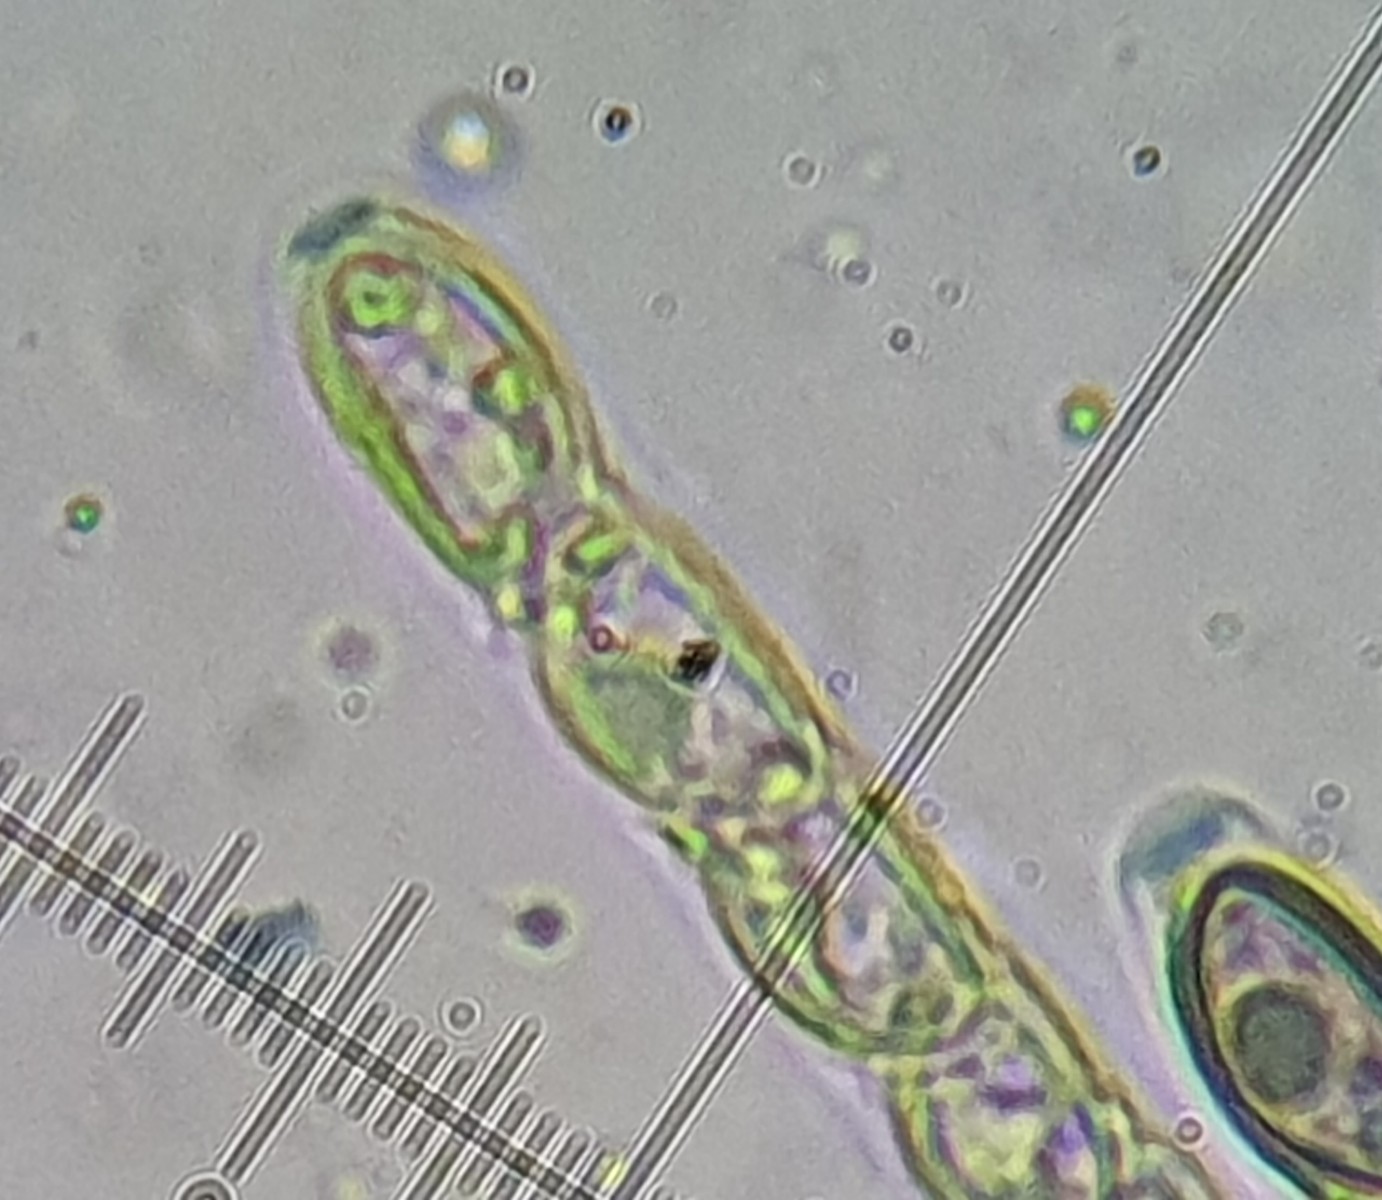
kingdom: Fungi
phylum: Ascomycota
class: Sordariomycetes
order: Xylariales
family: Hypoxylaceae
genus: Hypoxylon
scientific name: Hypoxylon petriniae
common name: nedsænket kulbær
